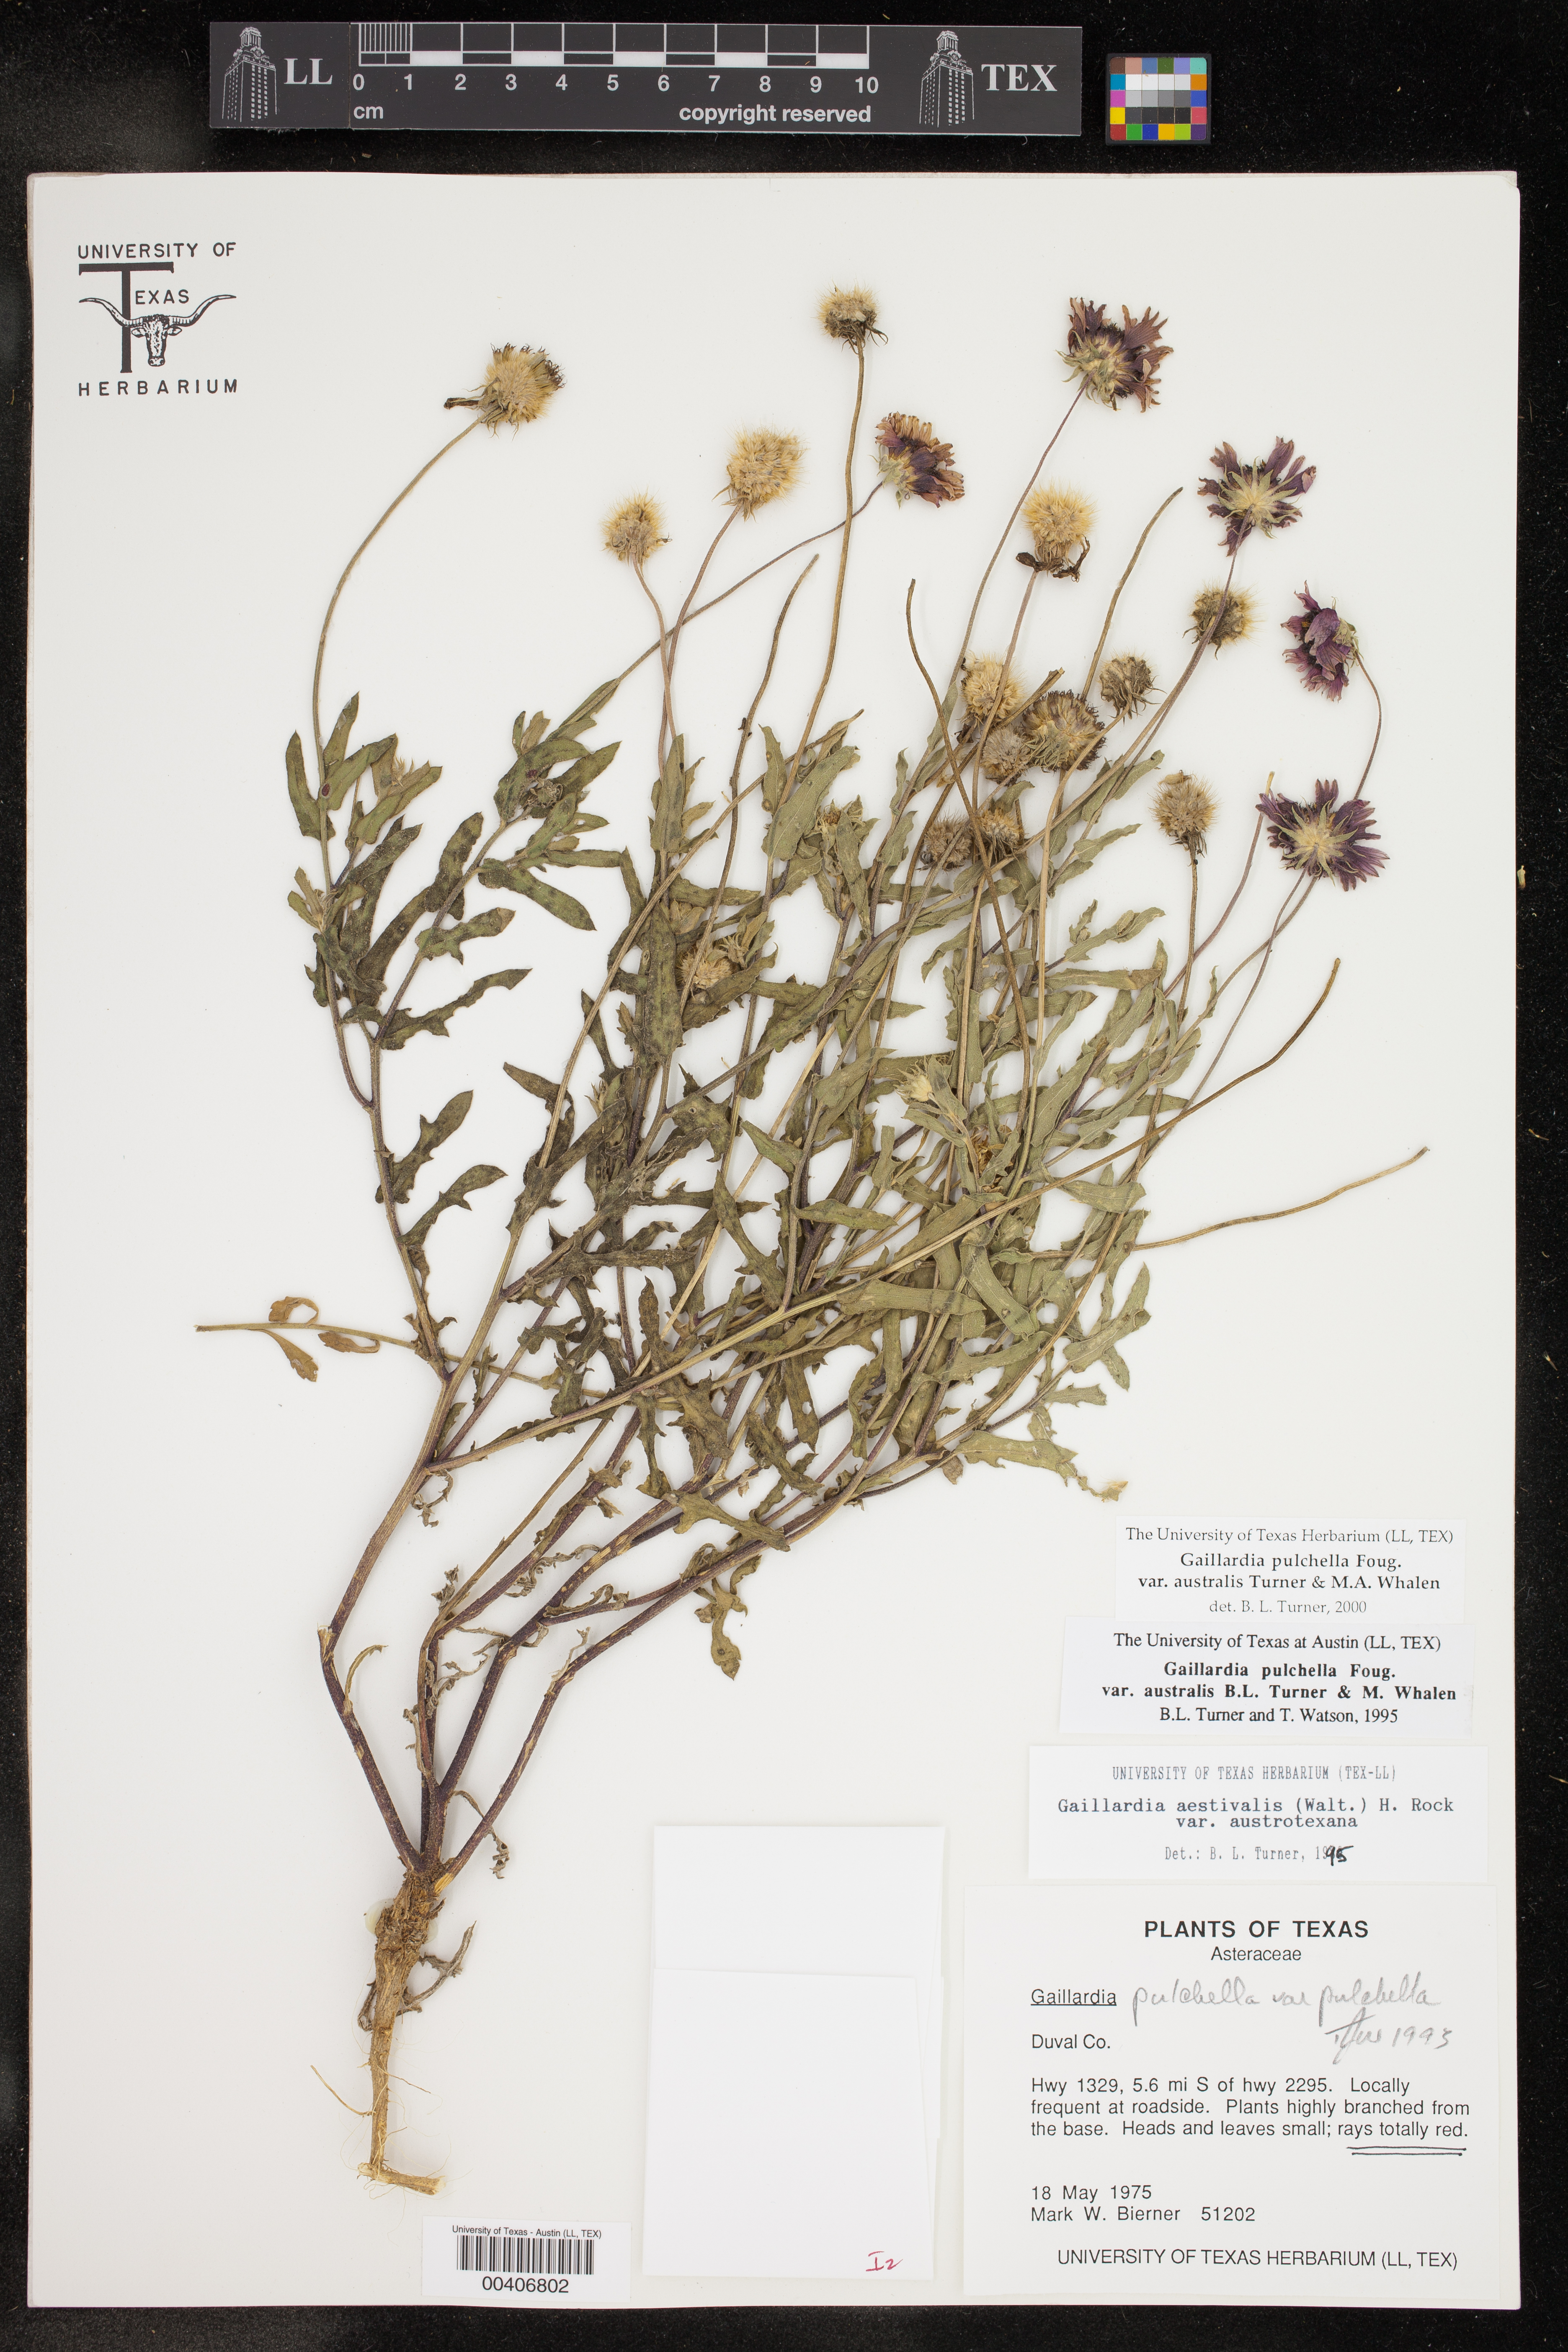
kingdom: Plantae
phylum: Tracheophyta
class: Magnoliopsida
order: Asterales
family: Asteraceae
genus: Gaillardia
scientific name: Gaillardia pulchella
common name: Firewheel
